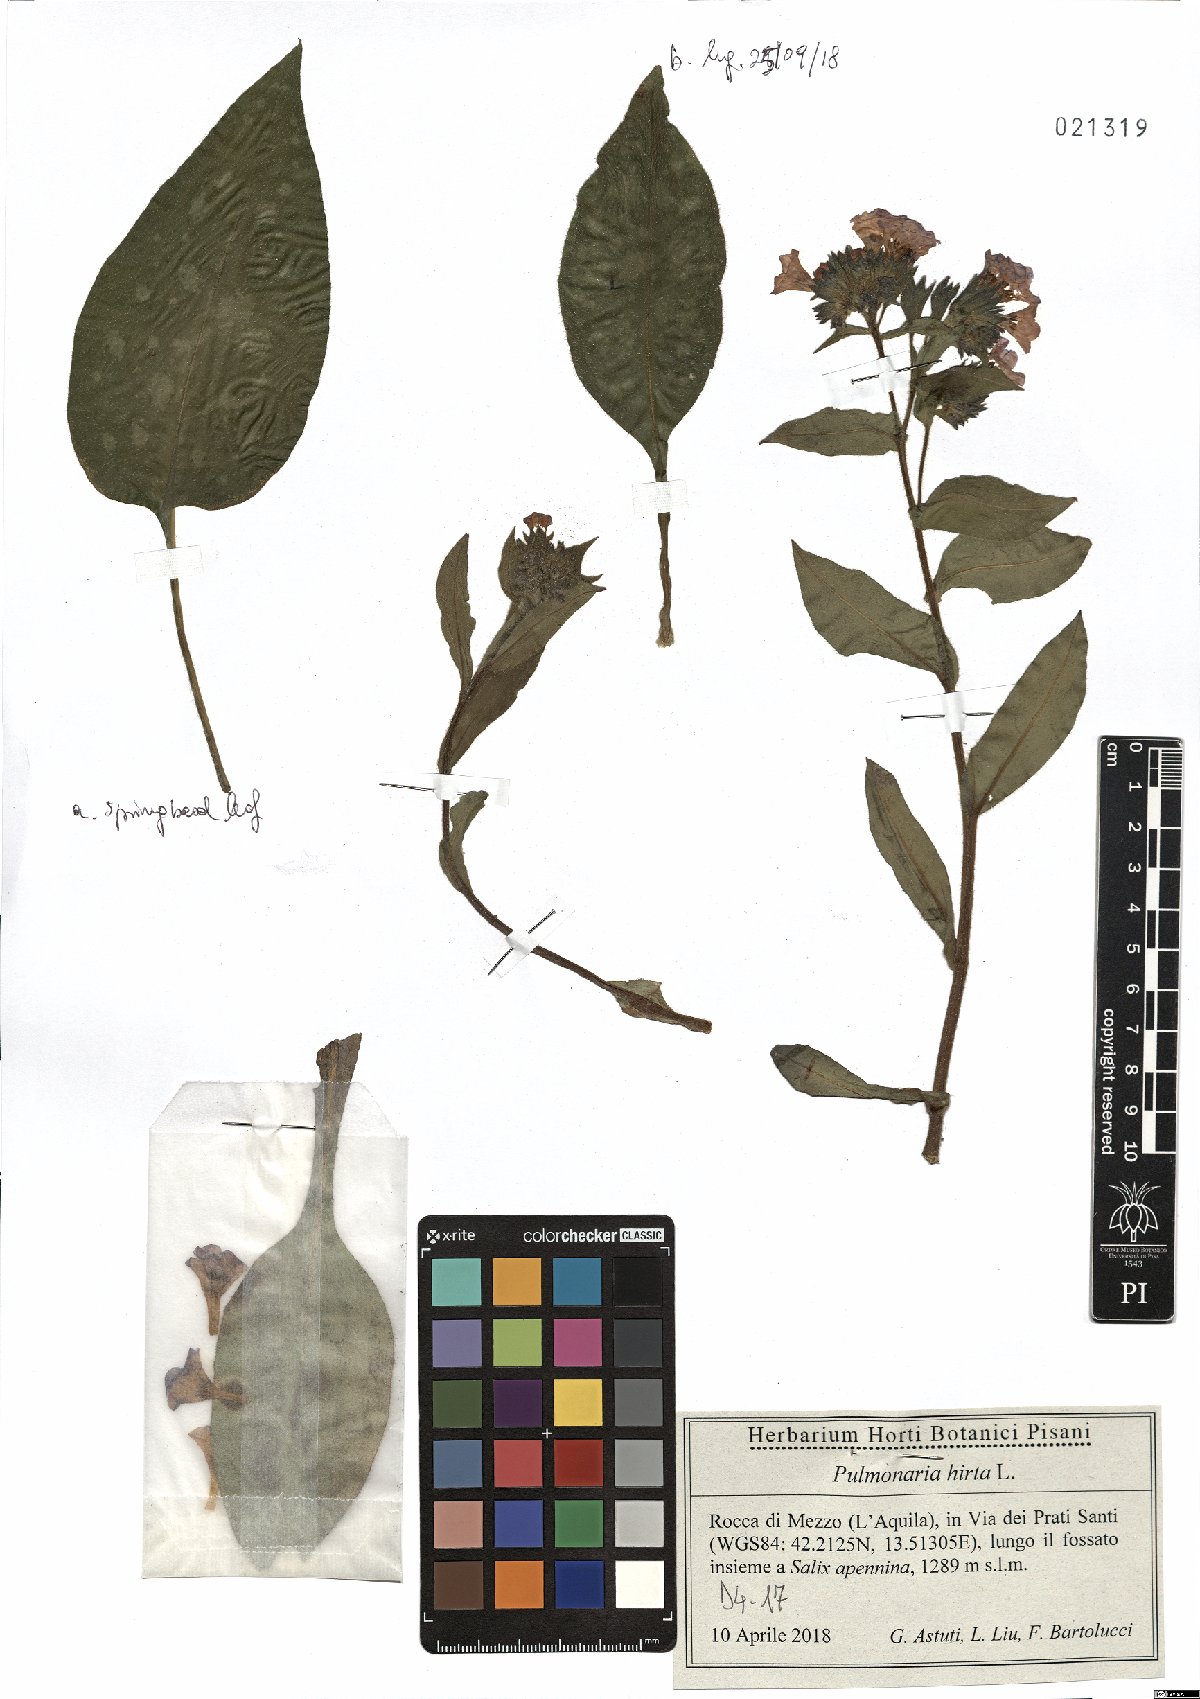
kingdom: Plantae
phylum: Tracheophyta
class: Magnoliopsida
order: Boraginales
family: Boraginaceae
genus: Pulmonaria
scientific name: Pulmonaria hirta
